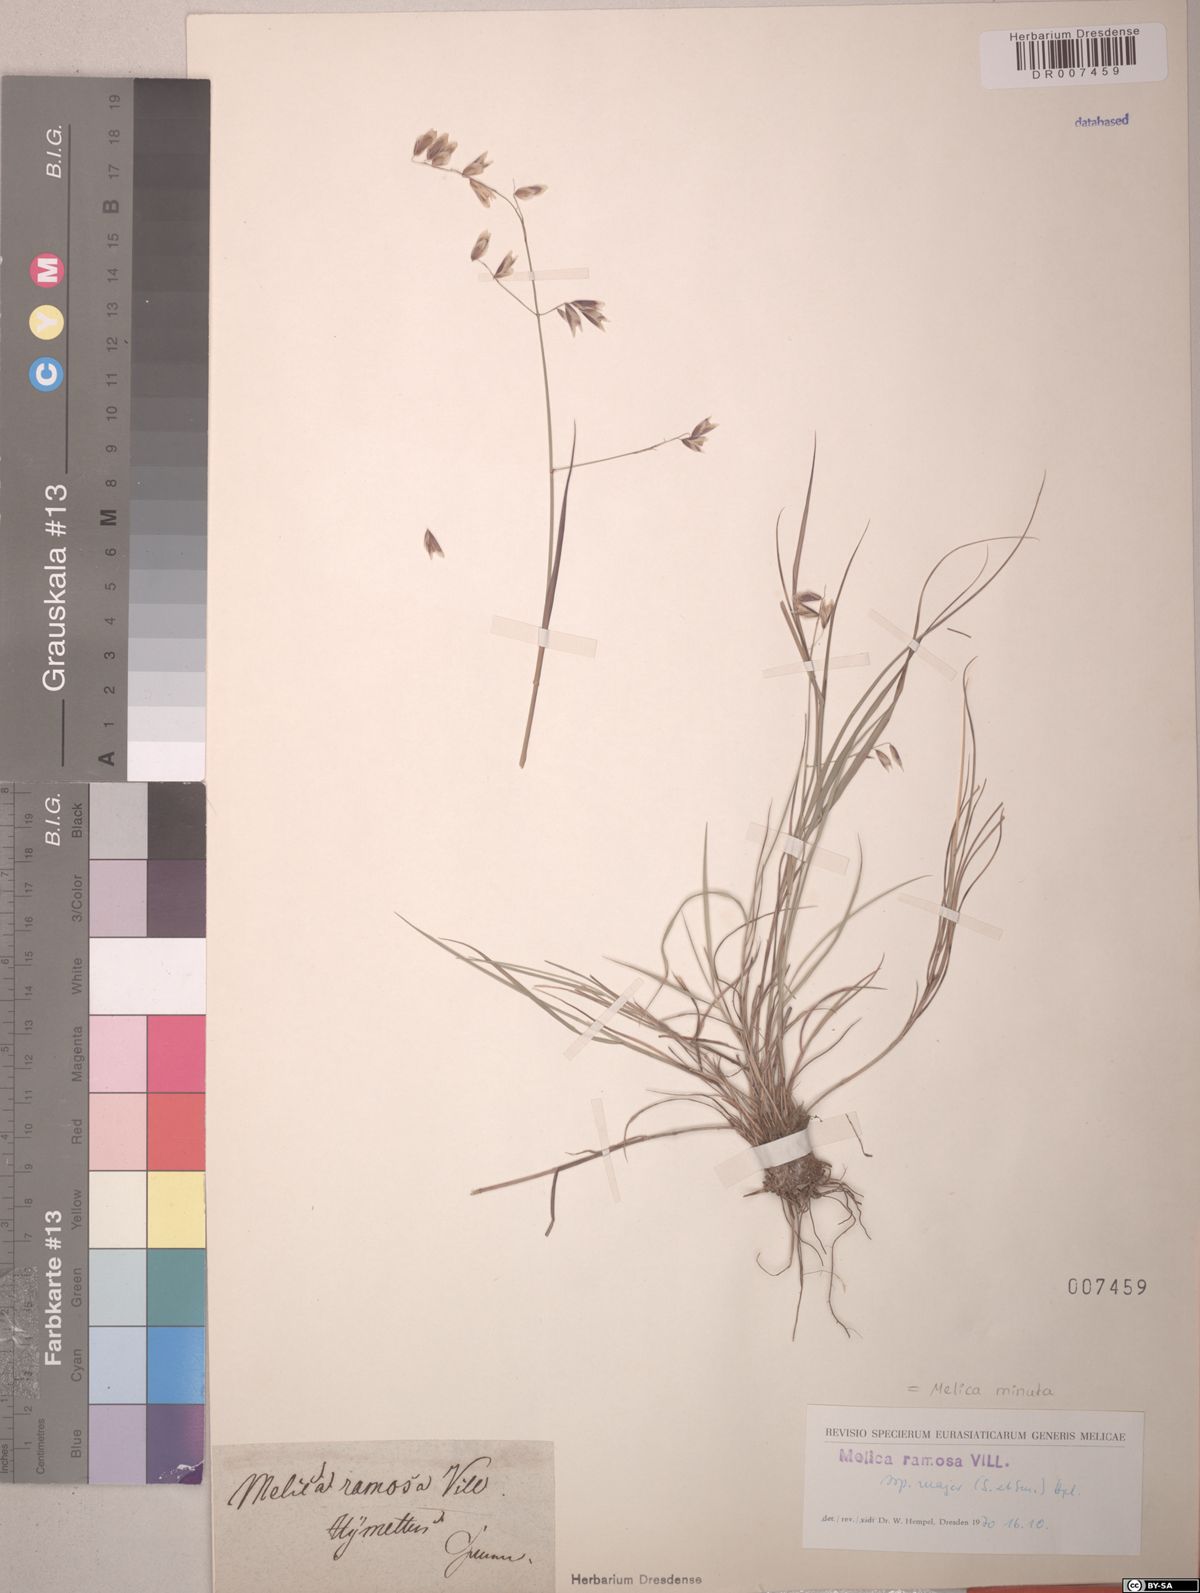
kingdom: Plantae
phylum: Tracheophyta
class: Liliopsida
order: Poales
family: Poaceae
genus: Melica
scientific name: Melica minuta
